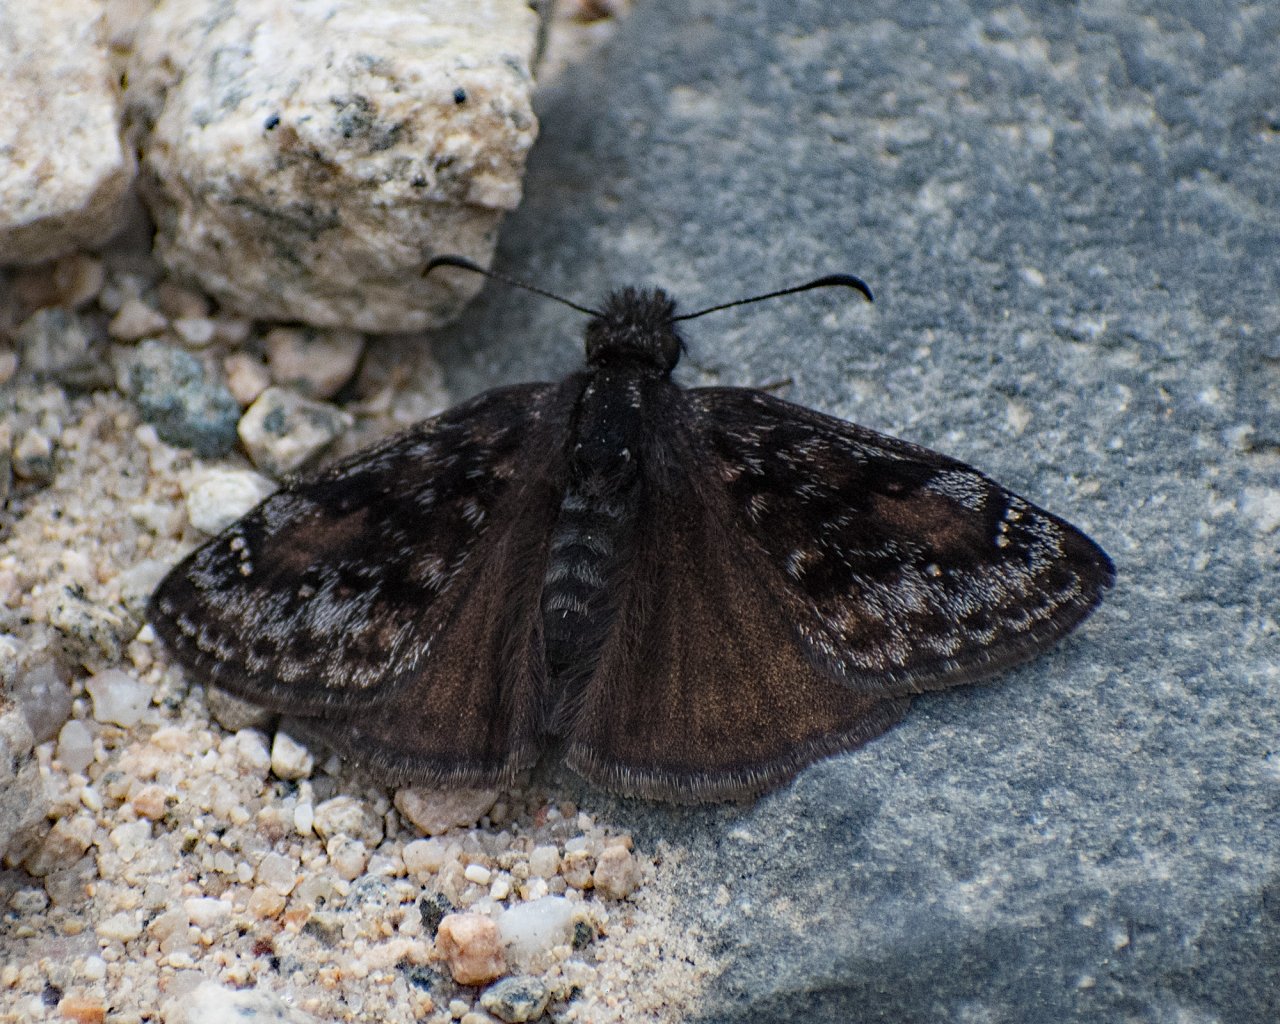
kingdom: Animalia
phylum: Arthropoda
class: Insecta
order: Lepidoptera
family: Hesperiidae
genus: Erynnis
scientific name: Erynnis pacuvius
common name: Pacuvius Duskywing
